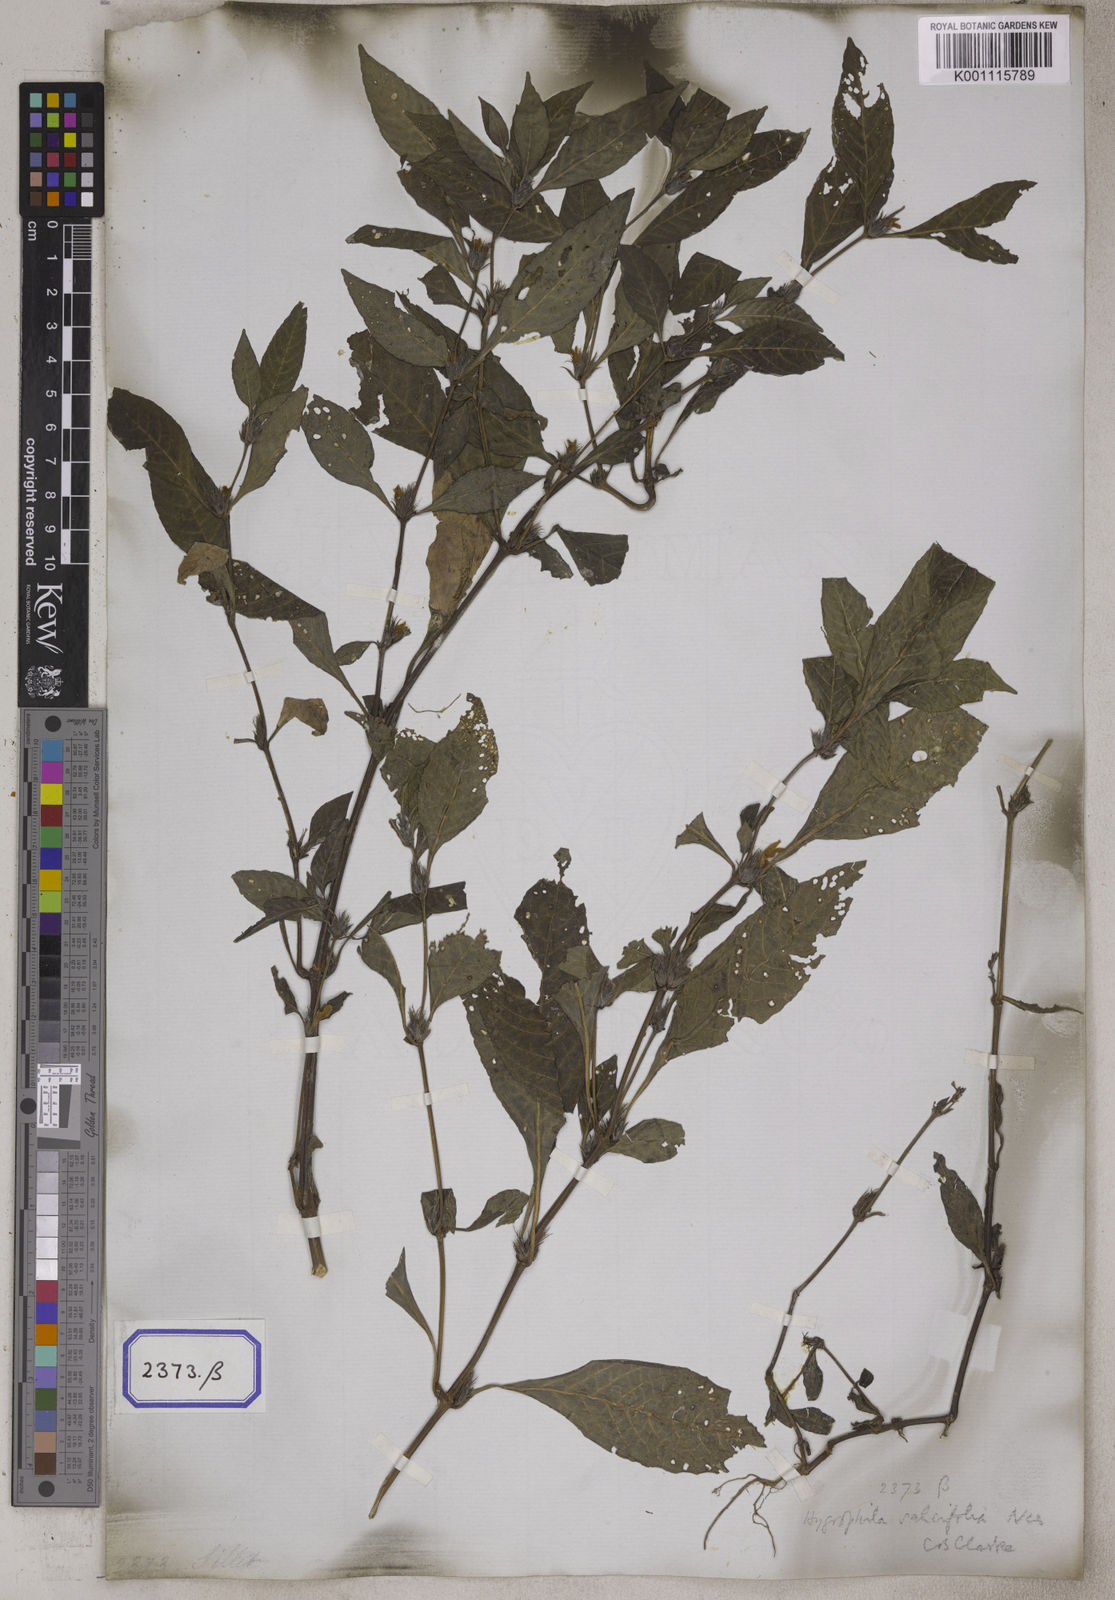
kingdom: Plantae
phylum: Tracheophyta
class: Magnoliopsida
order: Lamiales
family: Acanthaceae
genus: Hygrophila
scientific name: Hygrophila erecta
